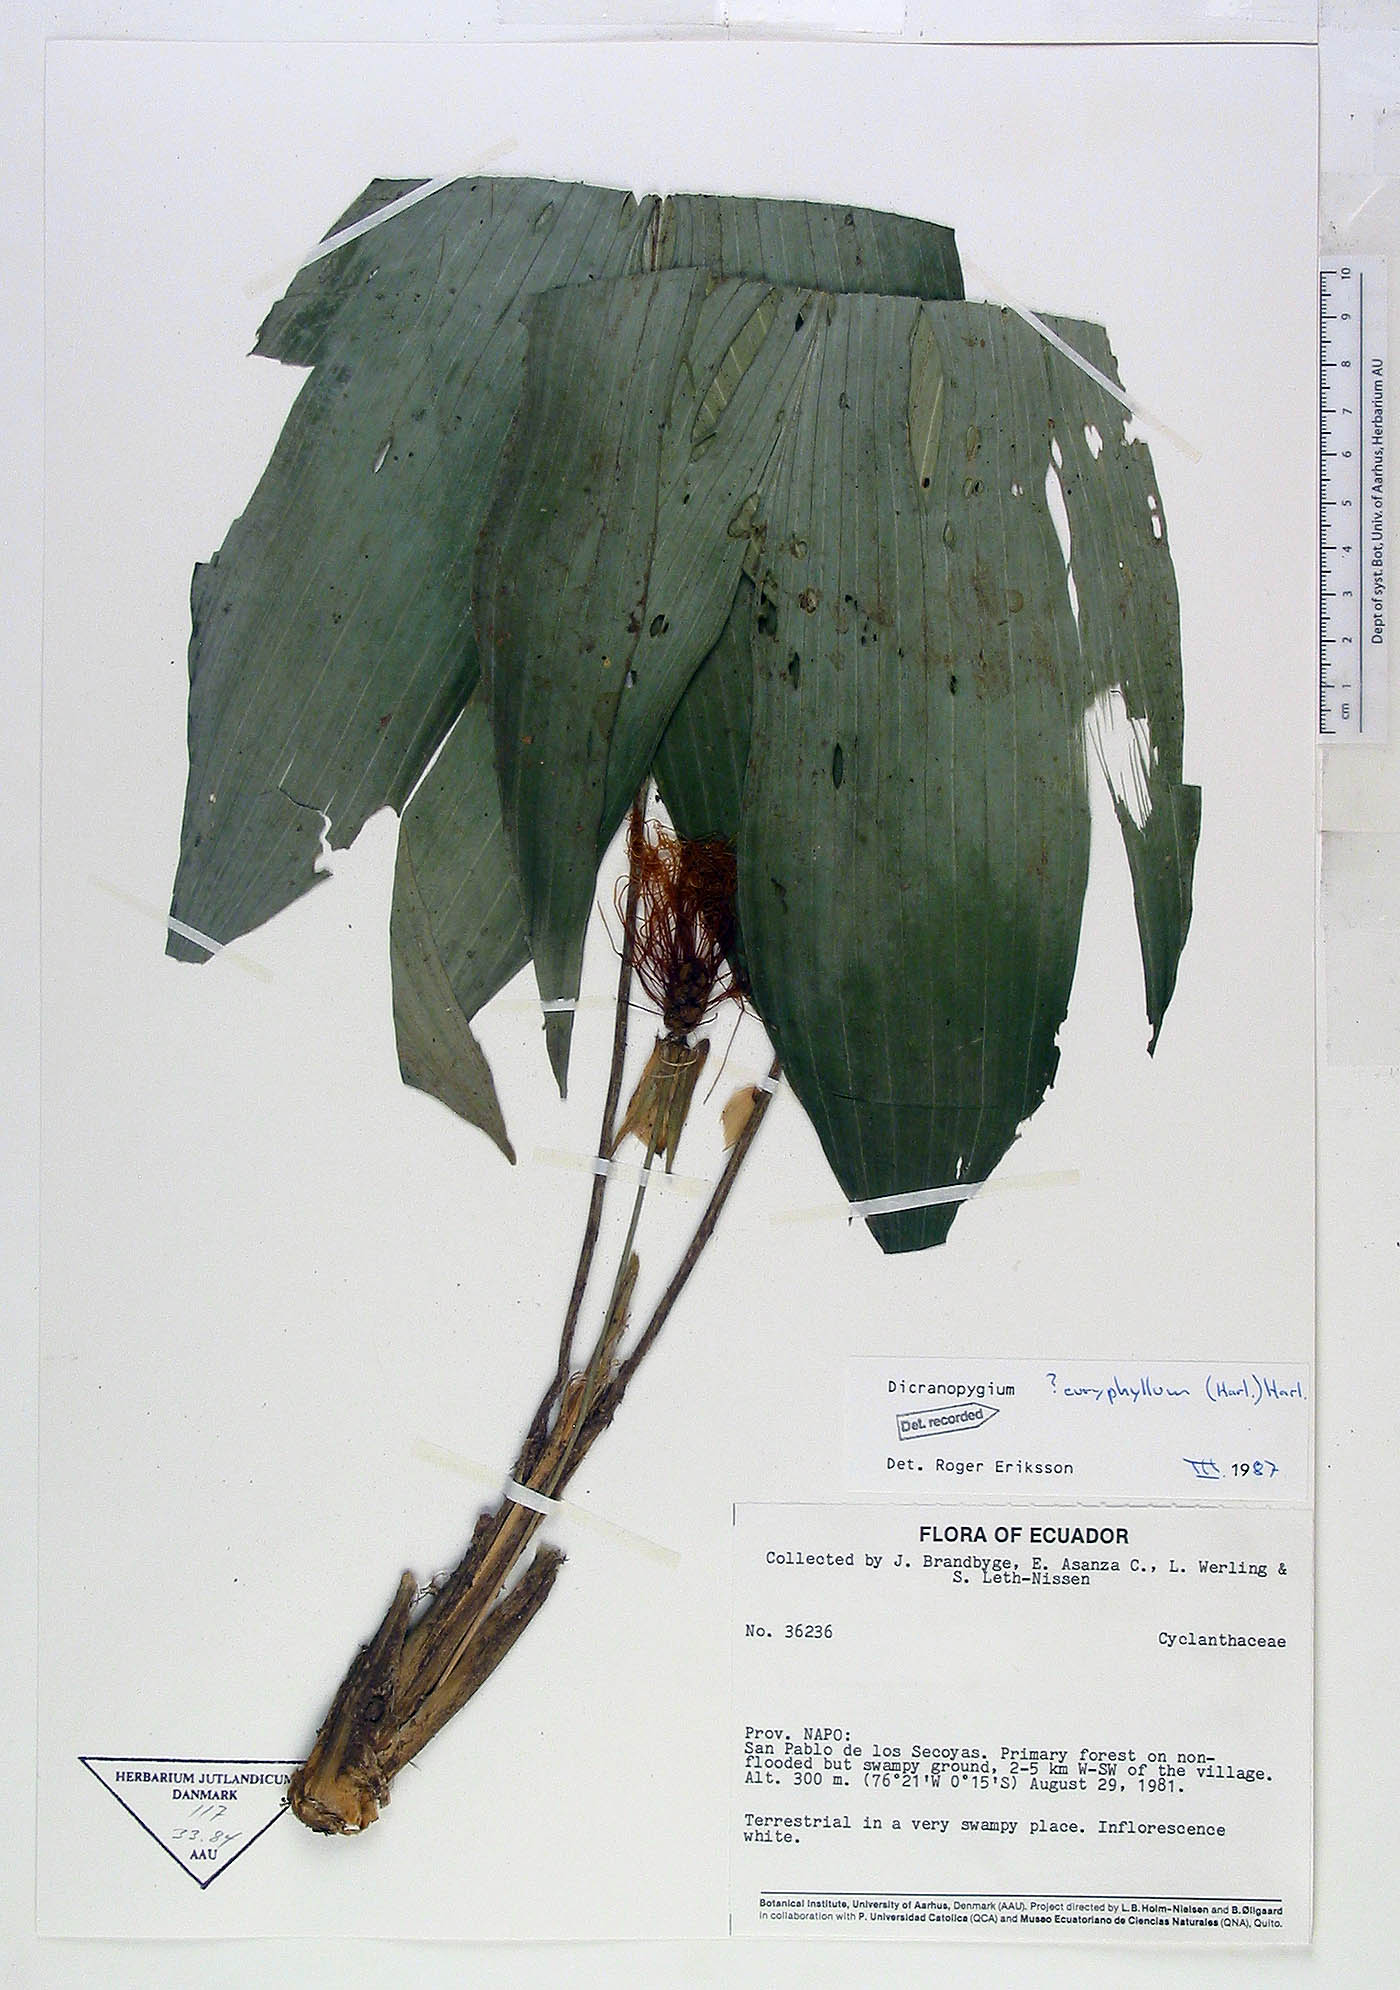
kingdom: Plantae
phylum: Tracheophyta
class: Liliopsida
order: Pandanales
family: Cyclanthaceae
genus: Dicranopygium
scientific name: Dicranopygium euryphyllum
